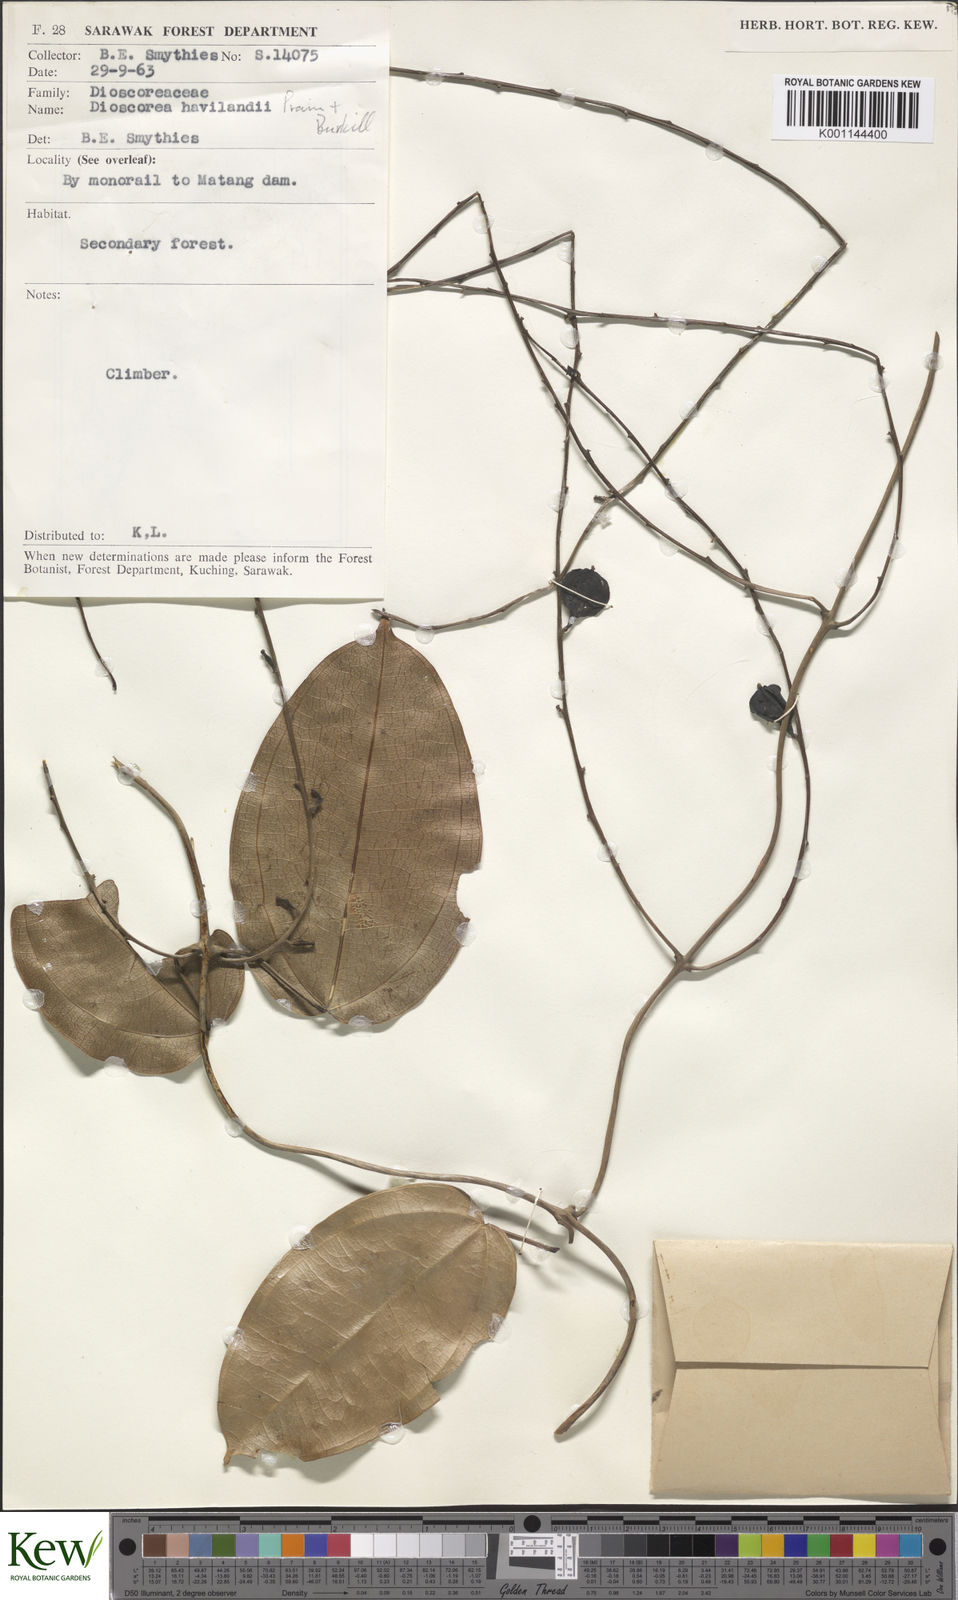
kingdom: Plantae
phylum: Tracheophyta
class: Liliopsida
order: Dioscoreales
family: Dioscoreaceae
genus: Dioscorea
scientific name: Dioscorea havilandii
